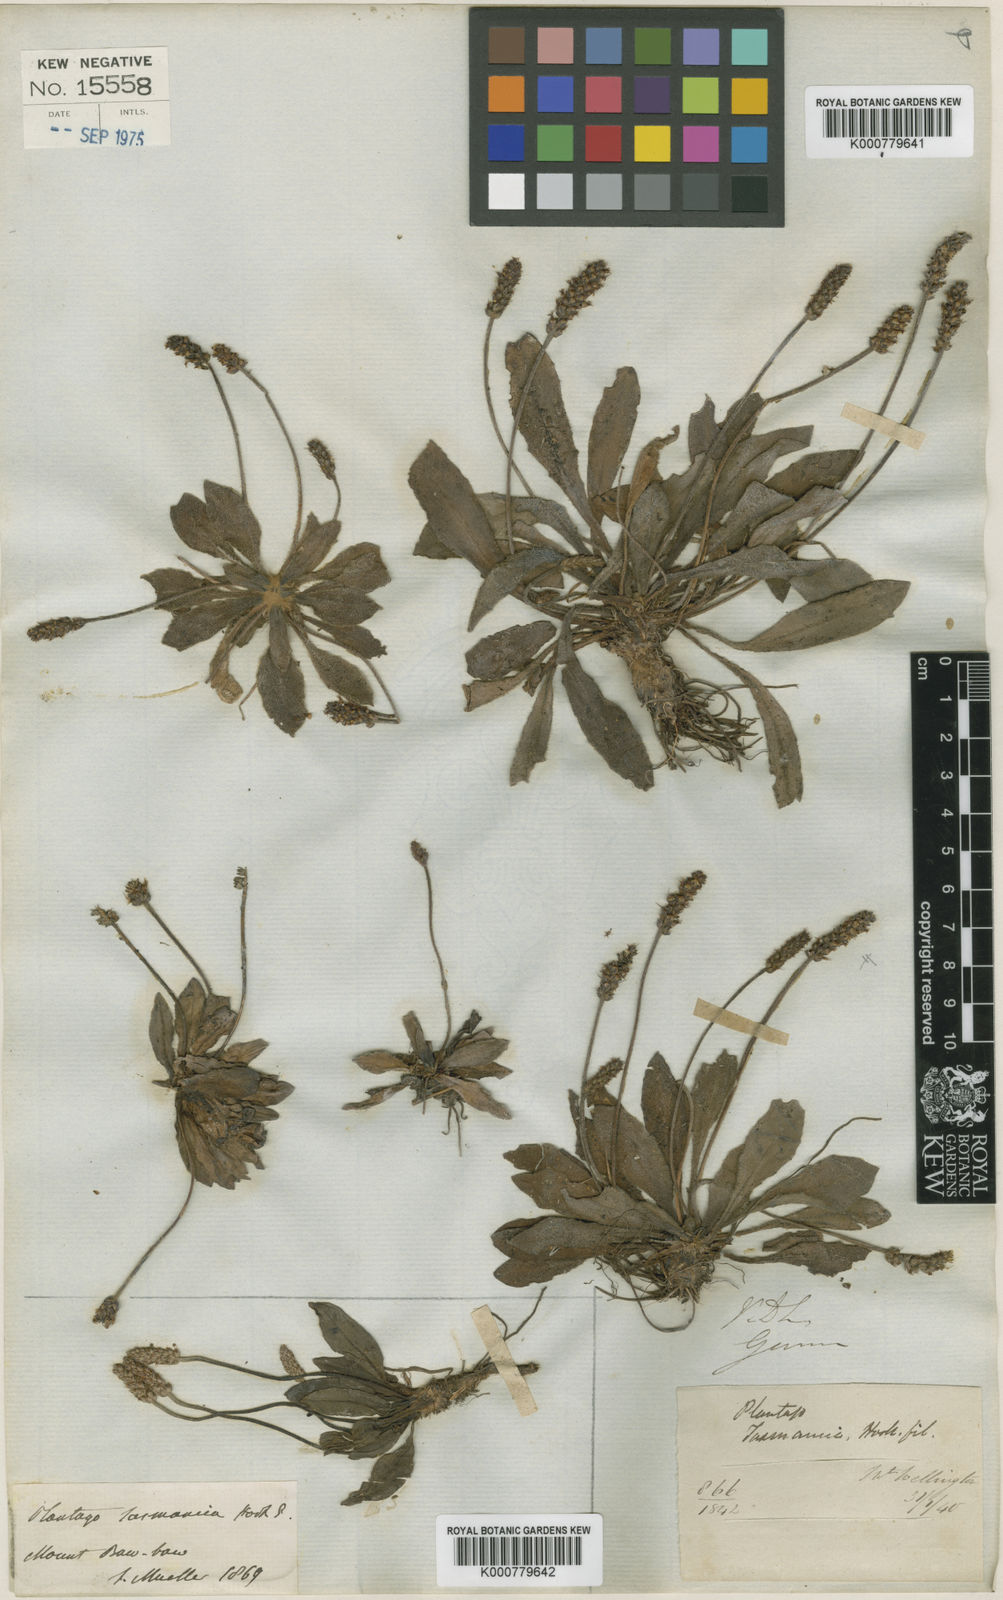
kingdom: Plantae
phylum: Tracheophyta
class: Magnoliopsida
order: Lamiales
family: Plantaginaceae
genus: Plantago
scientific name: Plantago glabrata
